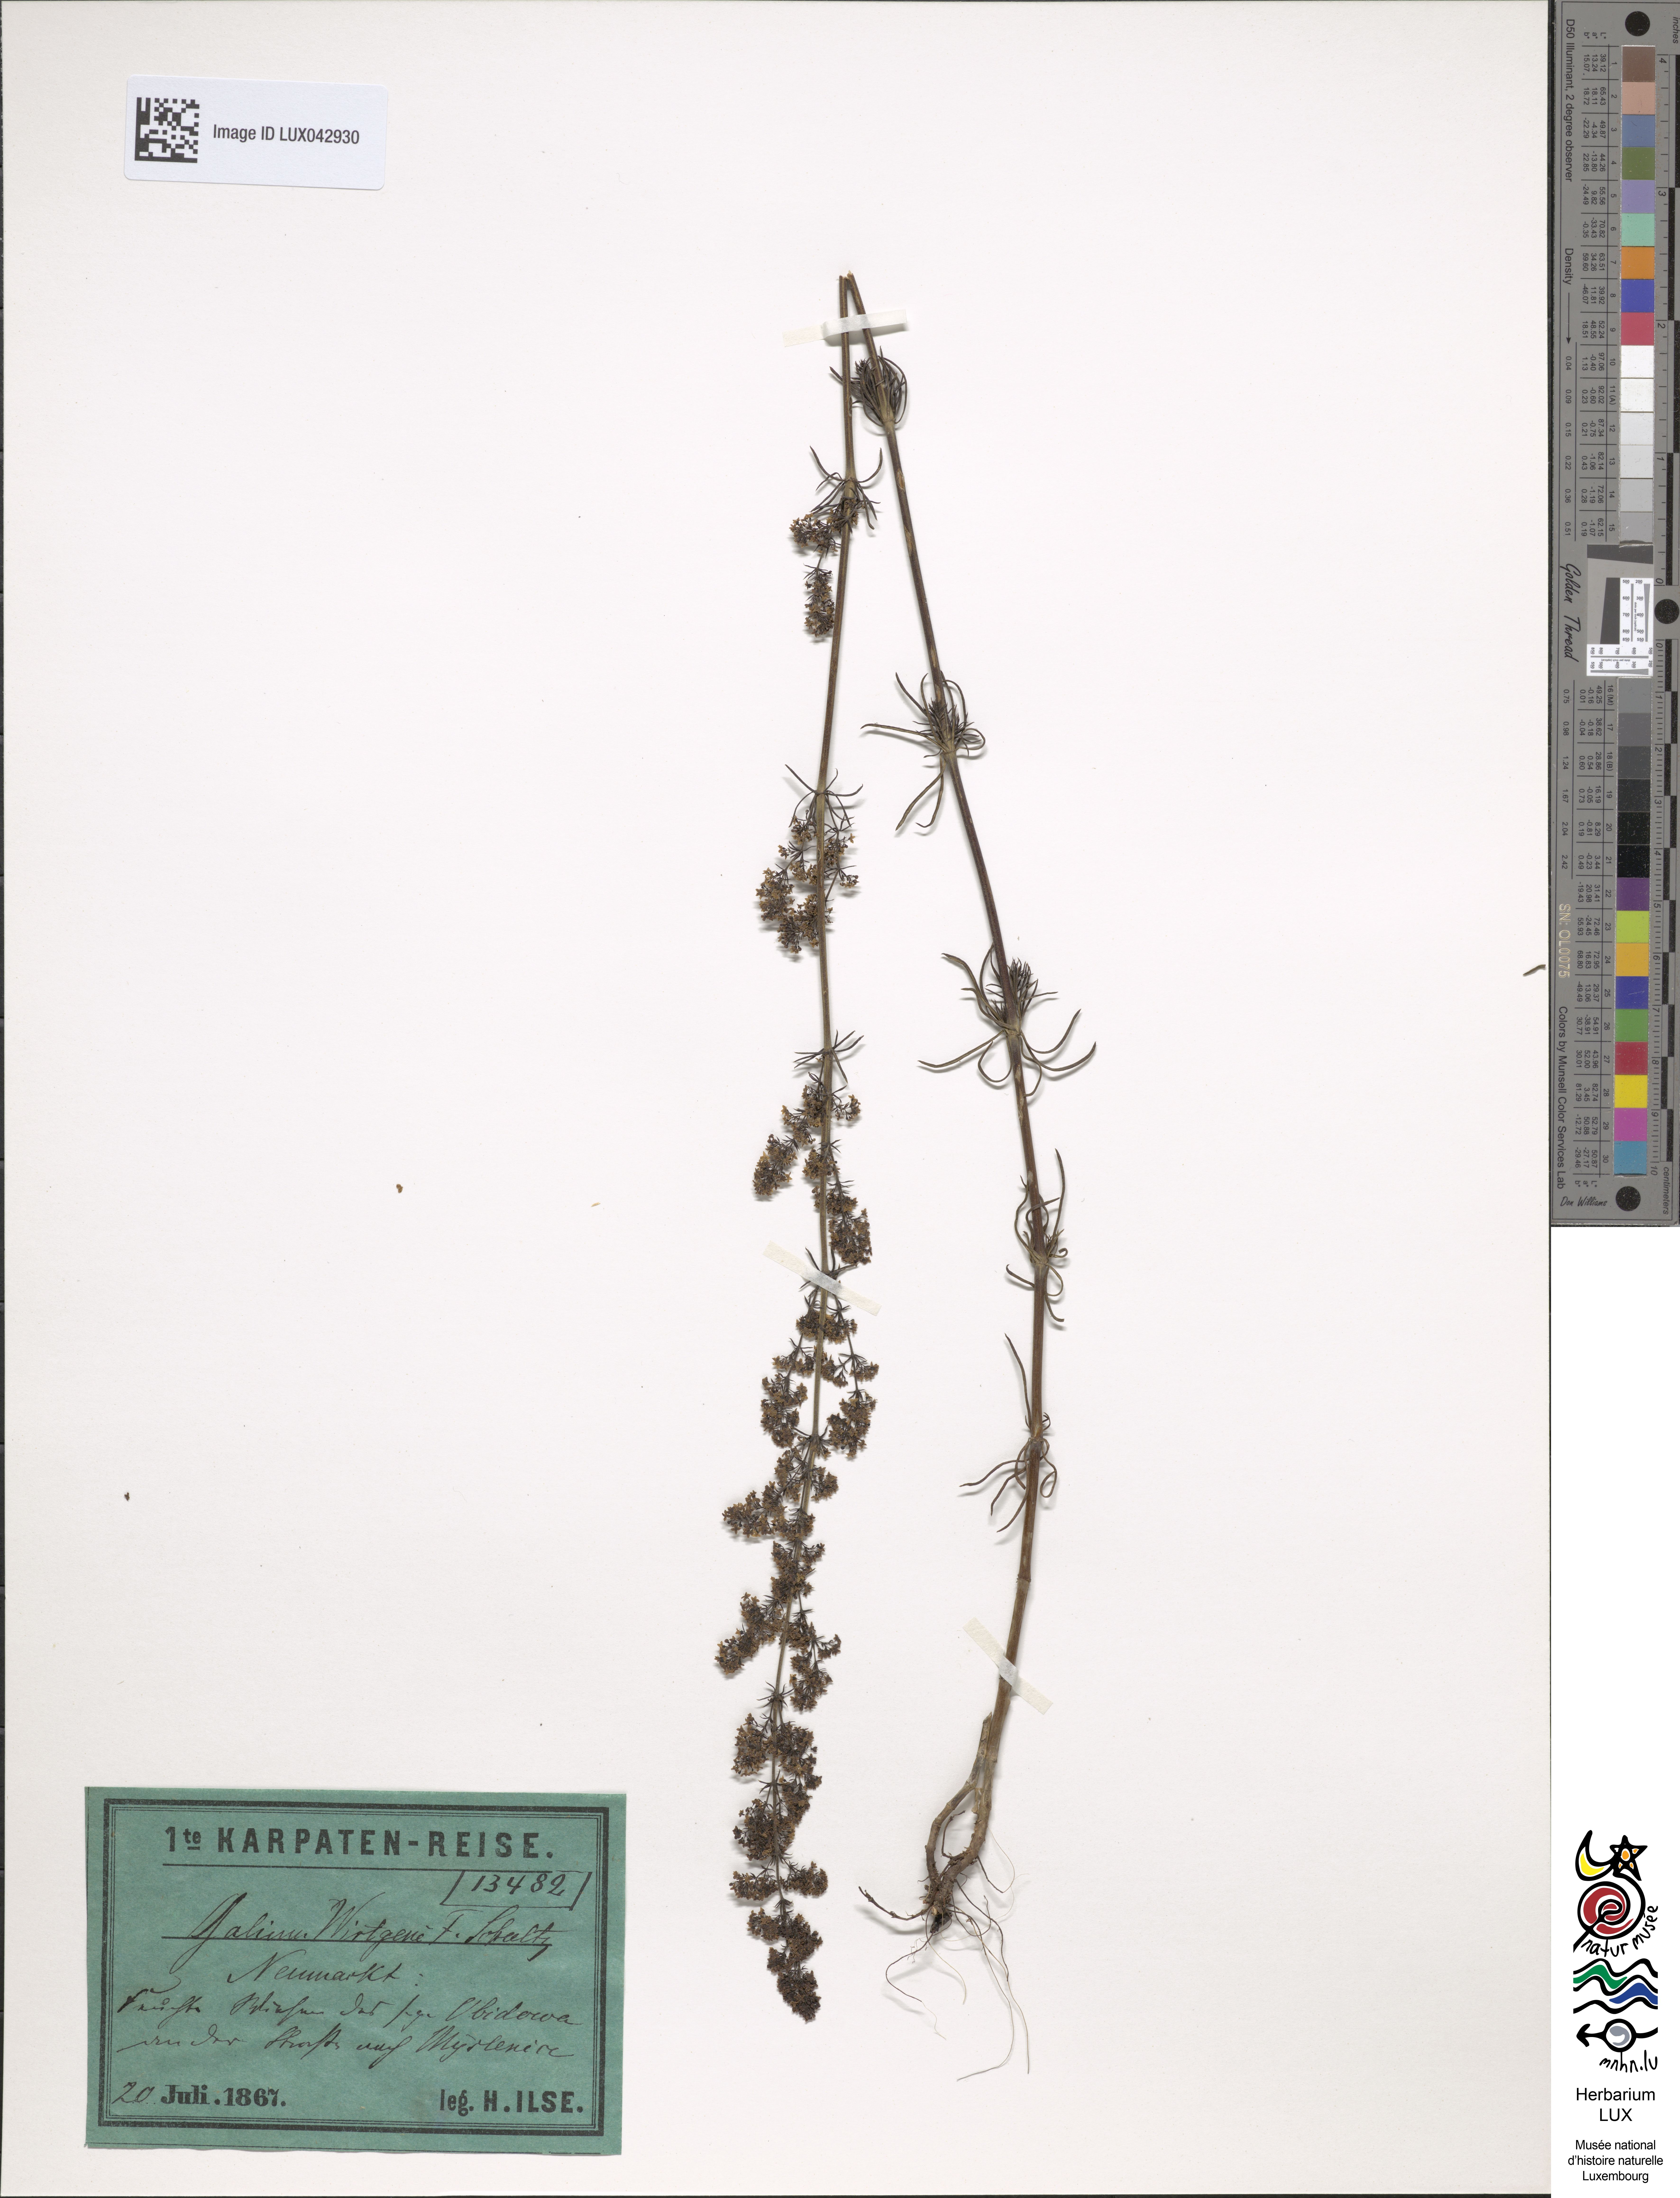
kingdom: Plantae
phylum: Tracheophyta
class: Magnoliopsida
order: Gentianales
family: Rubiaceae
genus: Galium
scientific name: Galium verum
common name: Lady's bedstraw
